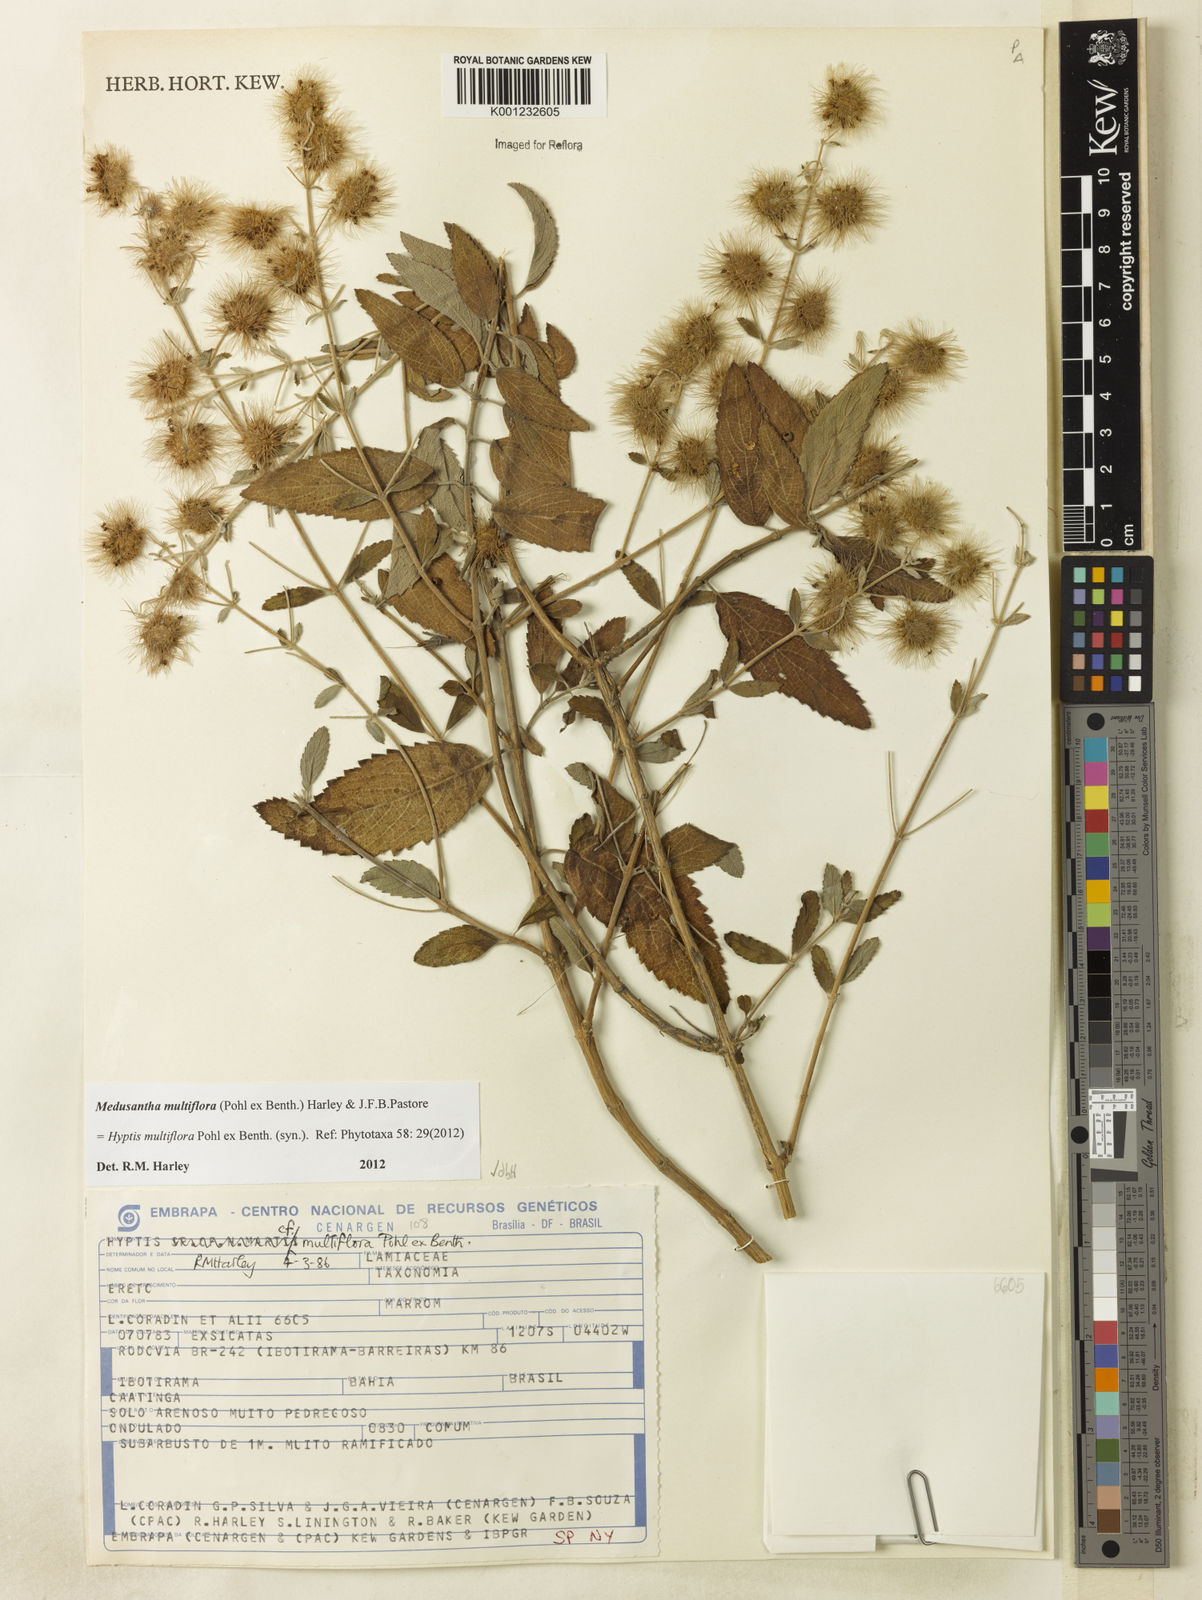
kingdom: Plantae
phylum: Tracheophyta
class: Magnoliopsida
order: Lamiales
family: Lamiaceae
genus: Medusantha
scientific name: Medusantha multiflora
